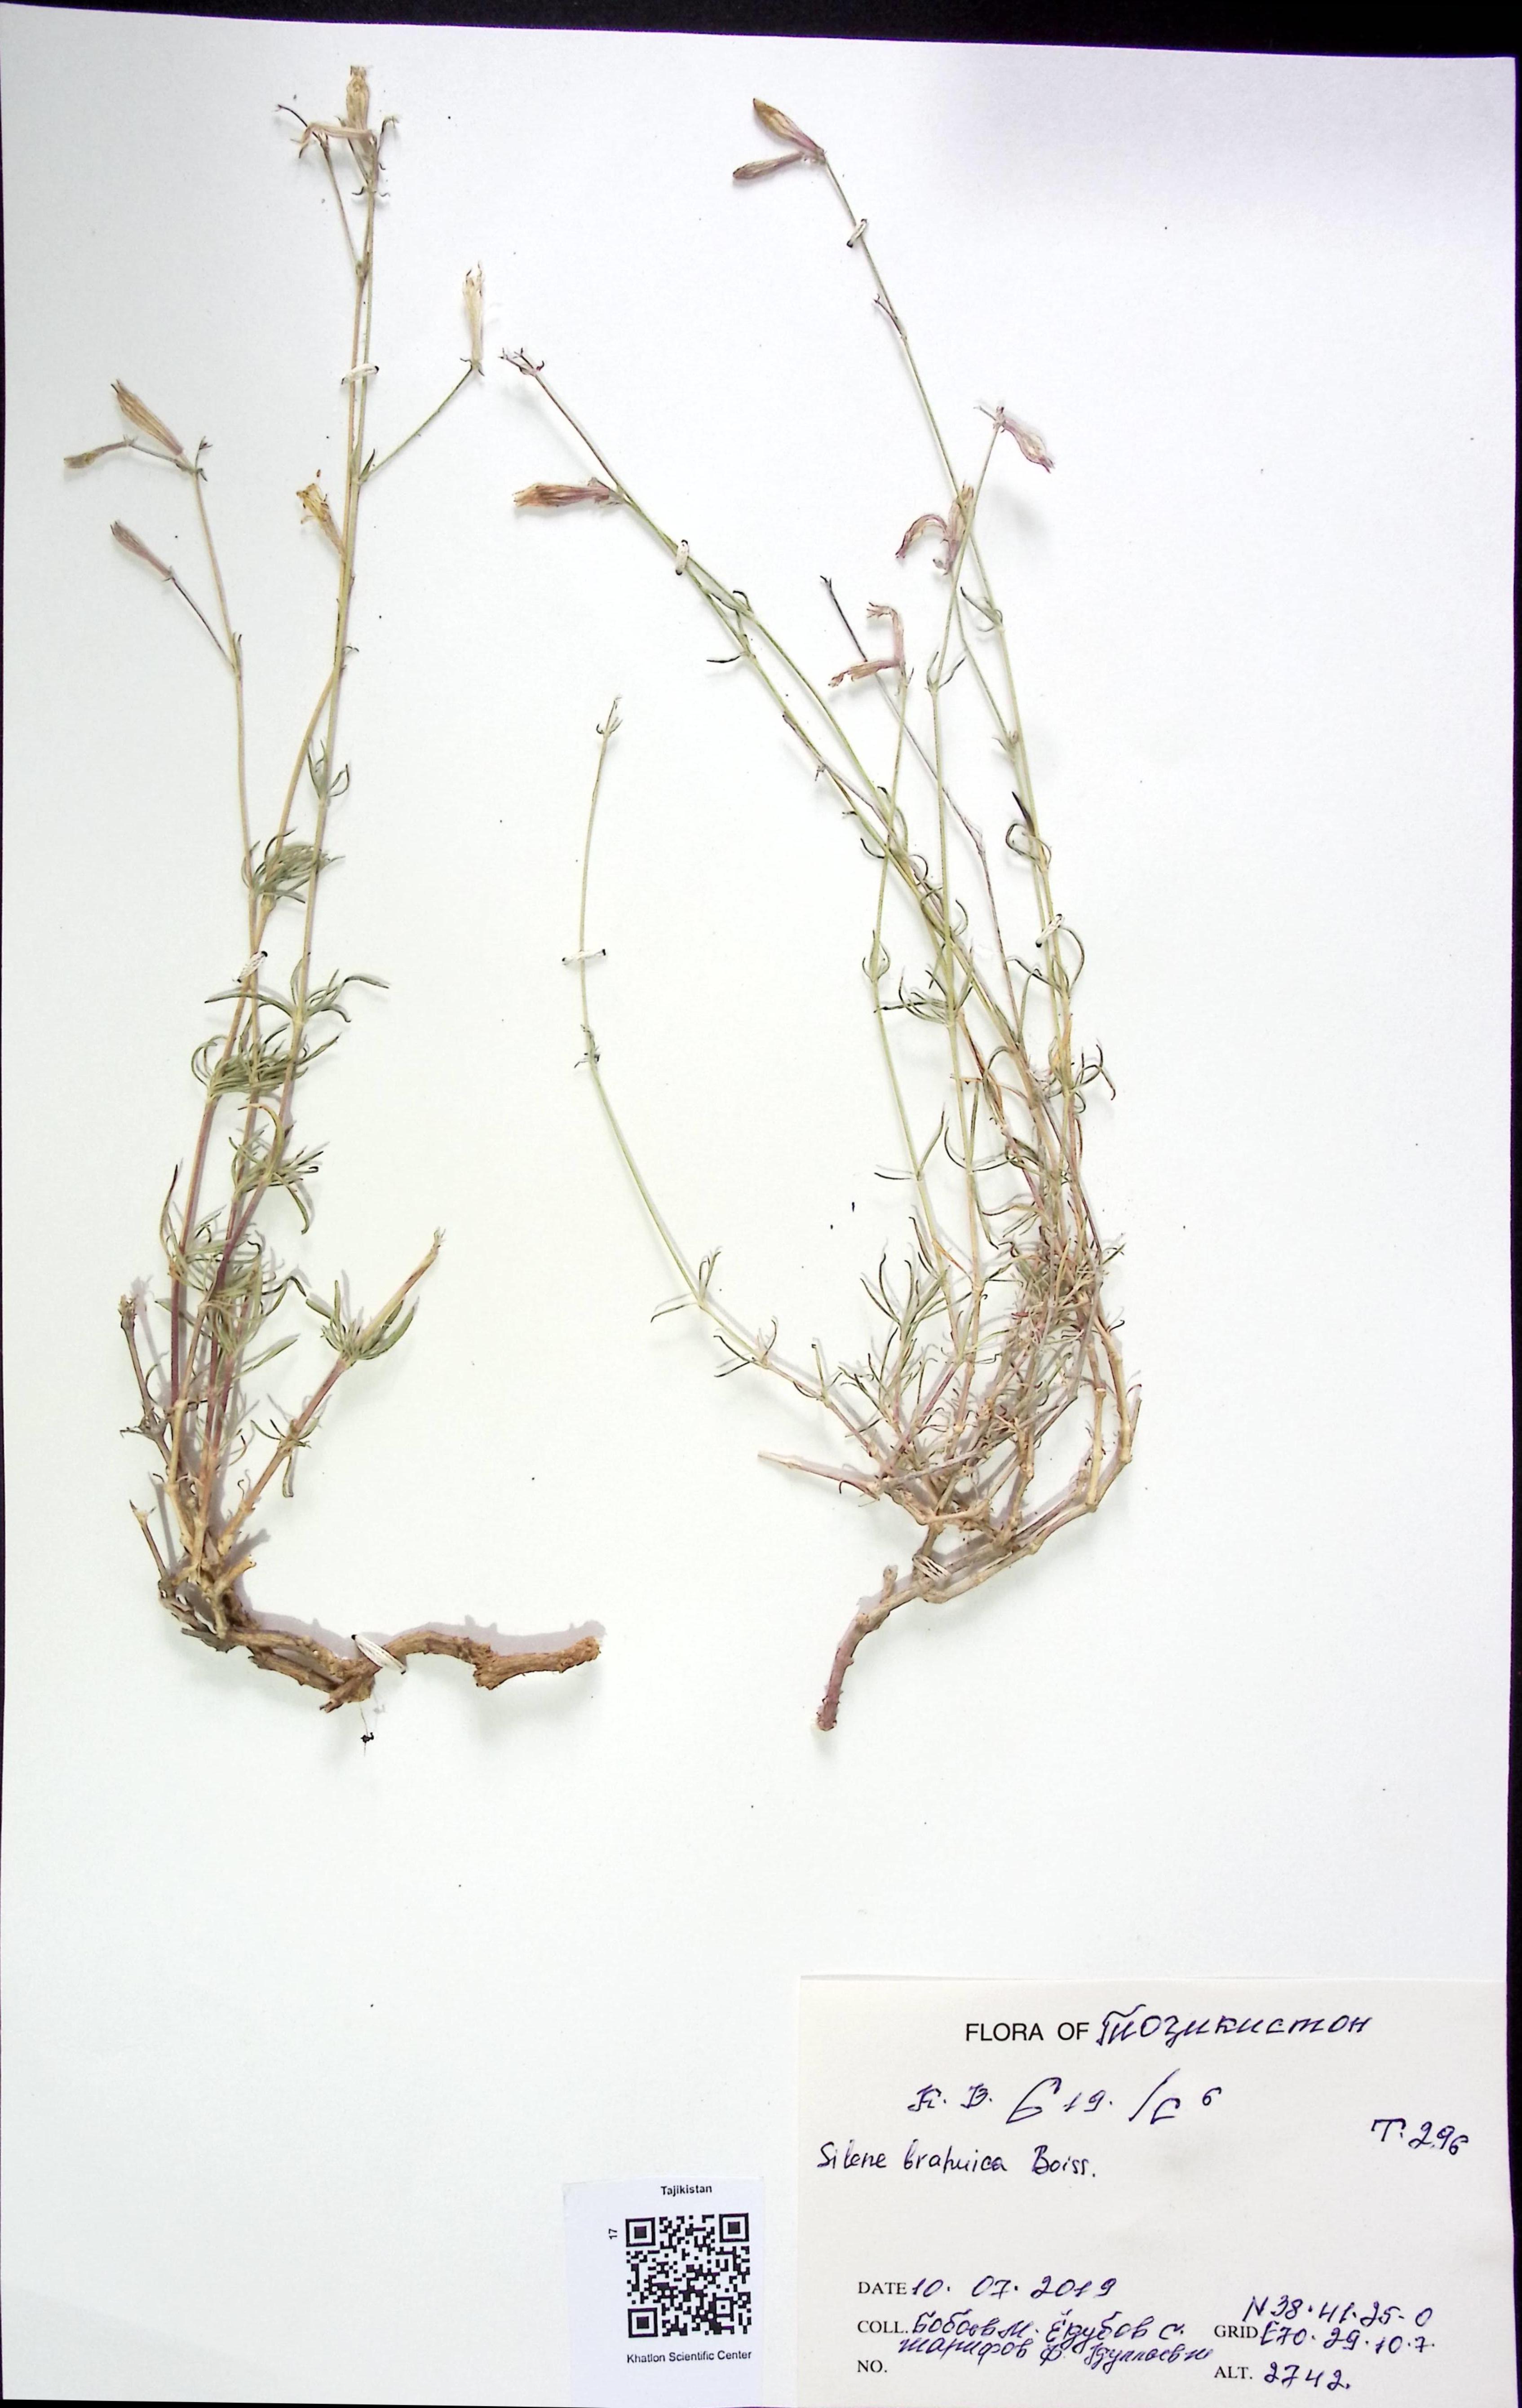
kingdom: Plantae
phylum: Tracheophyta
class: Magnoliopsida
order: Caryophyllales
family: Caryophyllaceae
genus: Silene
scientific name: Silene brahuica
